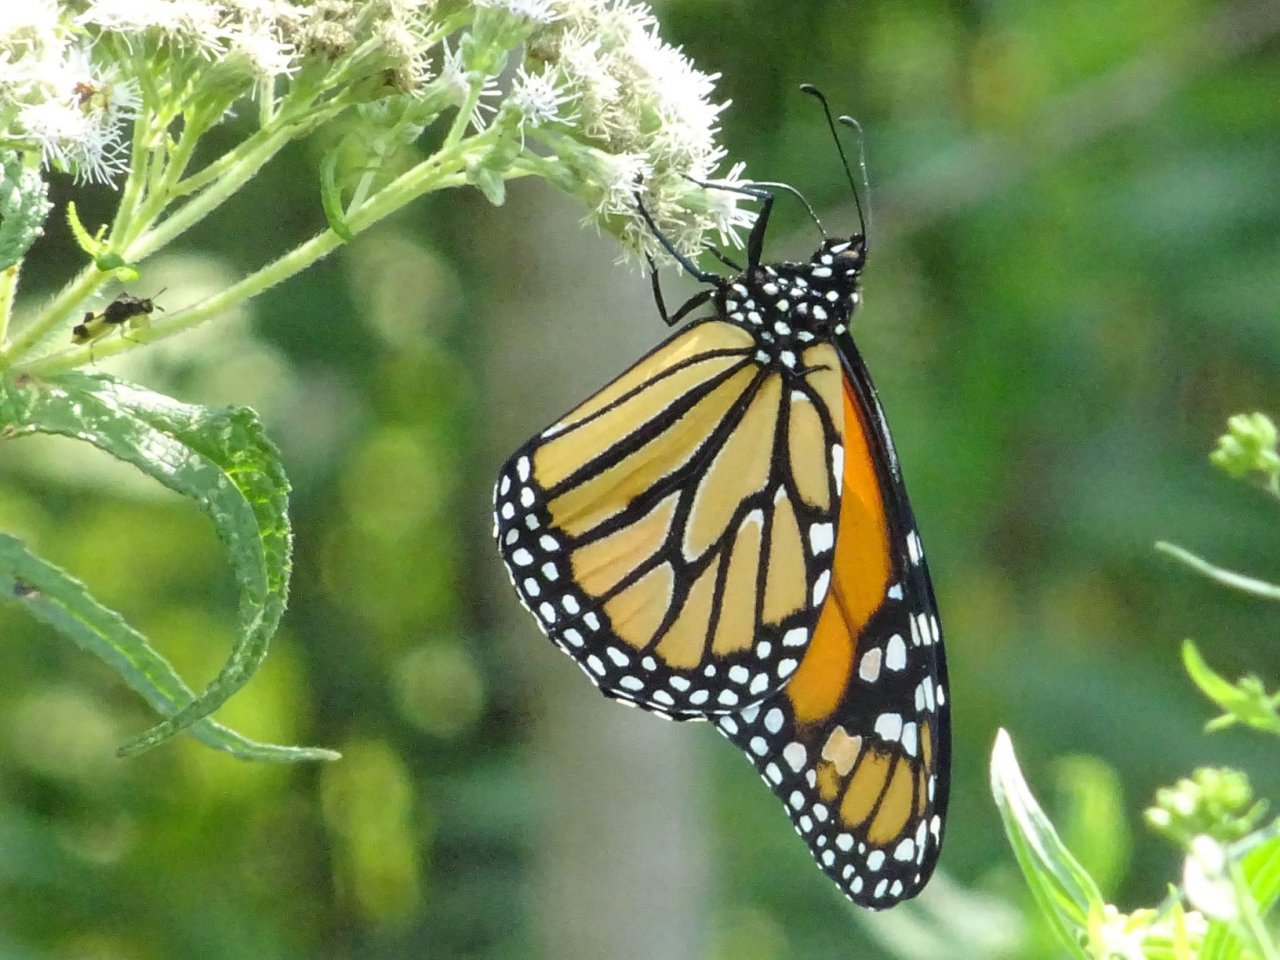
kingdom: Animalia
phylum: Arthropoda
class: Insecta
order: Lepidoptera
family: Nymphalidae
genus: Danaus
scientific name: Danaus plexippus
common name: Monarch
